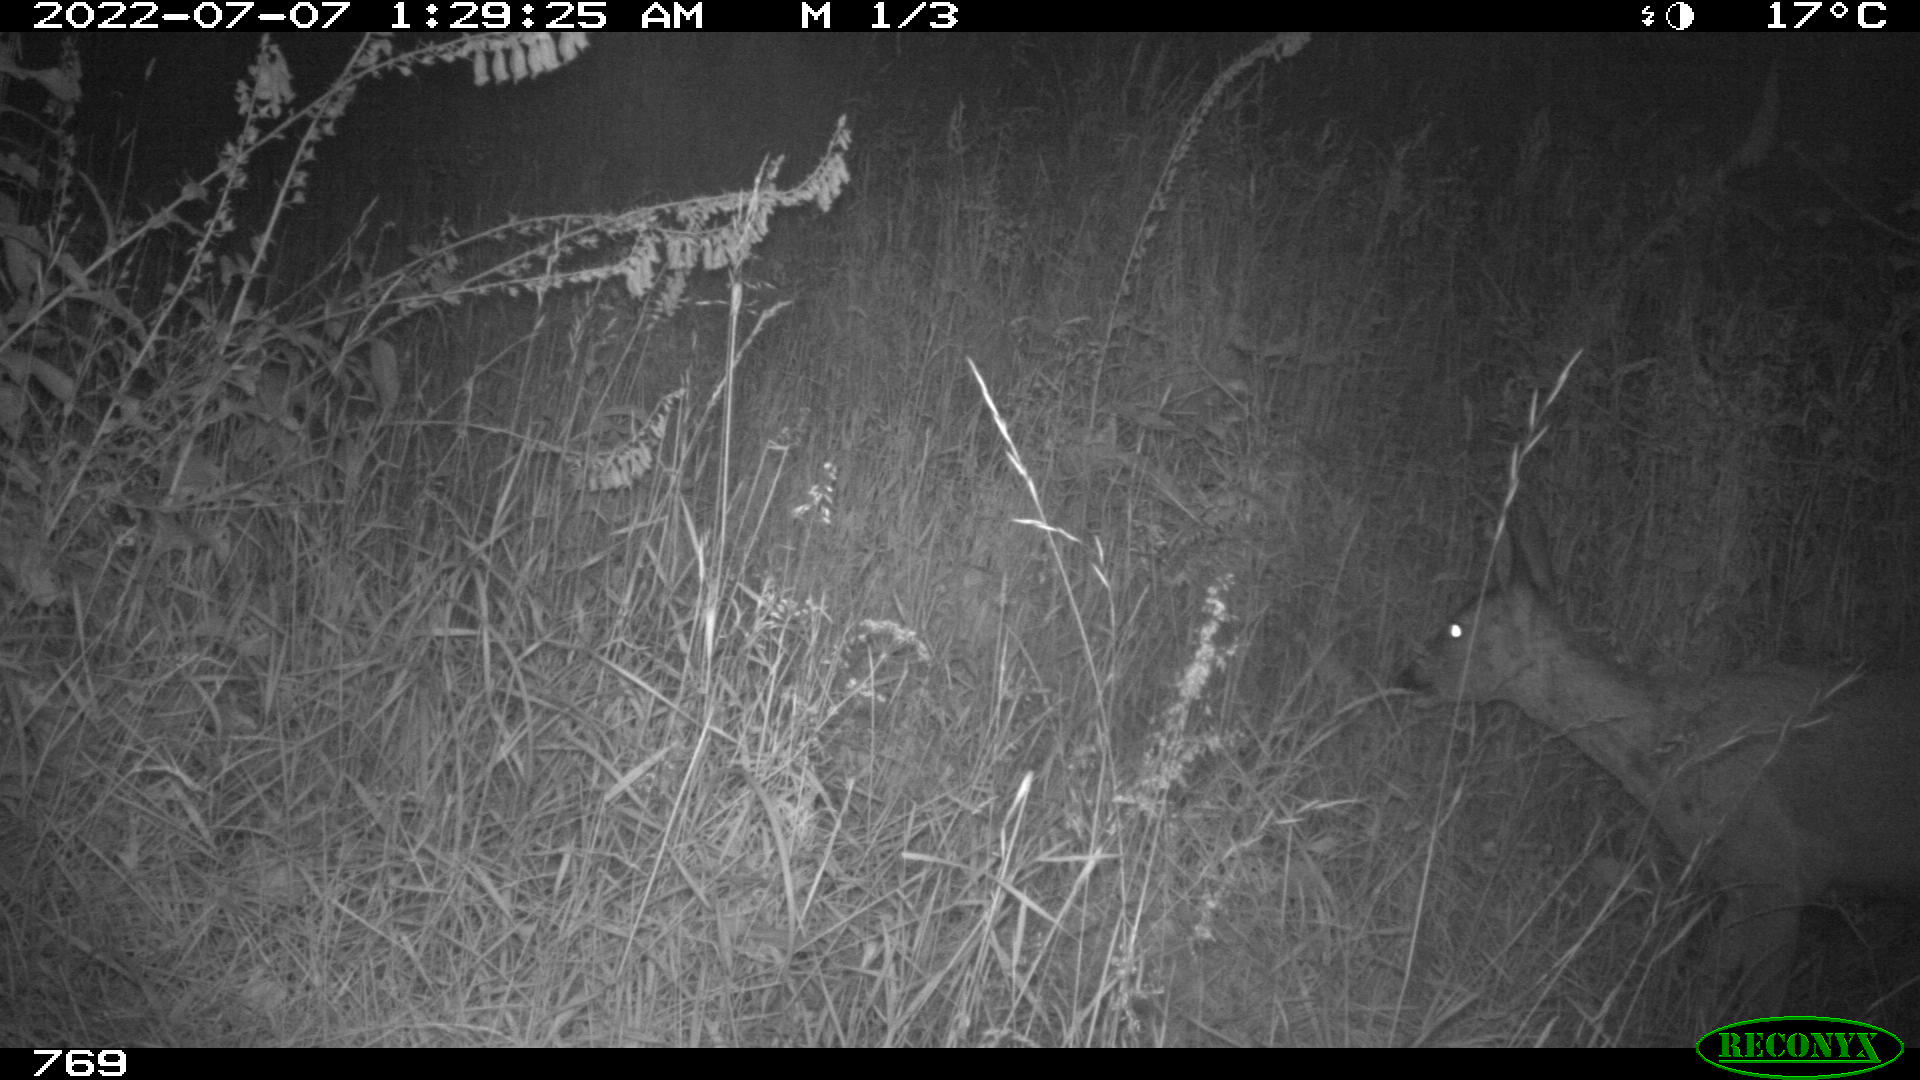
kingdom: Animalia
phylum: Chordata
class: Mammalia
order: Artiodactyla
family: Cervidae
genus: Capreolus
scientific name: Capreolus capreolus
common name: Western roe deer
